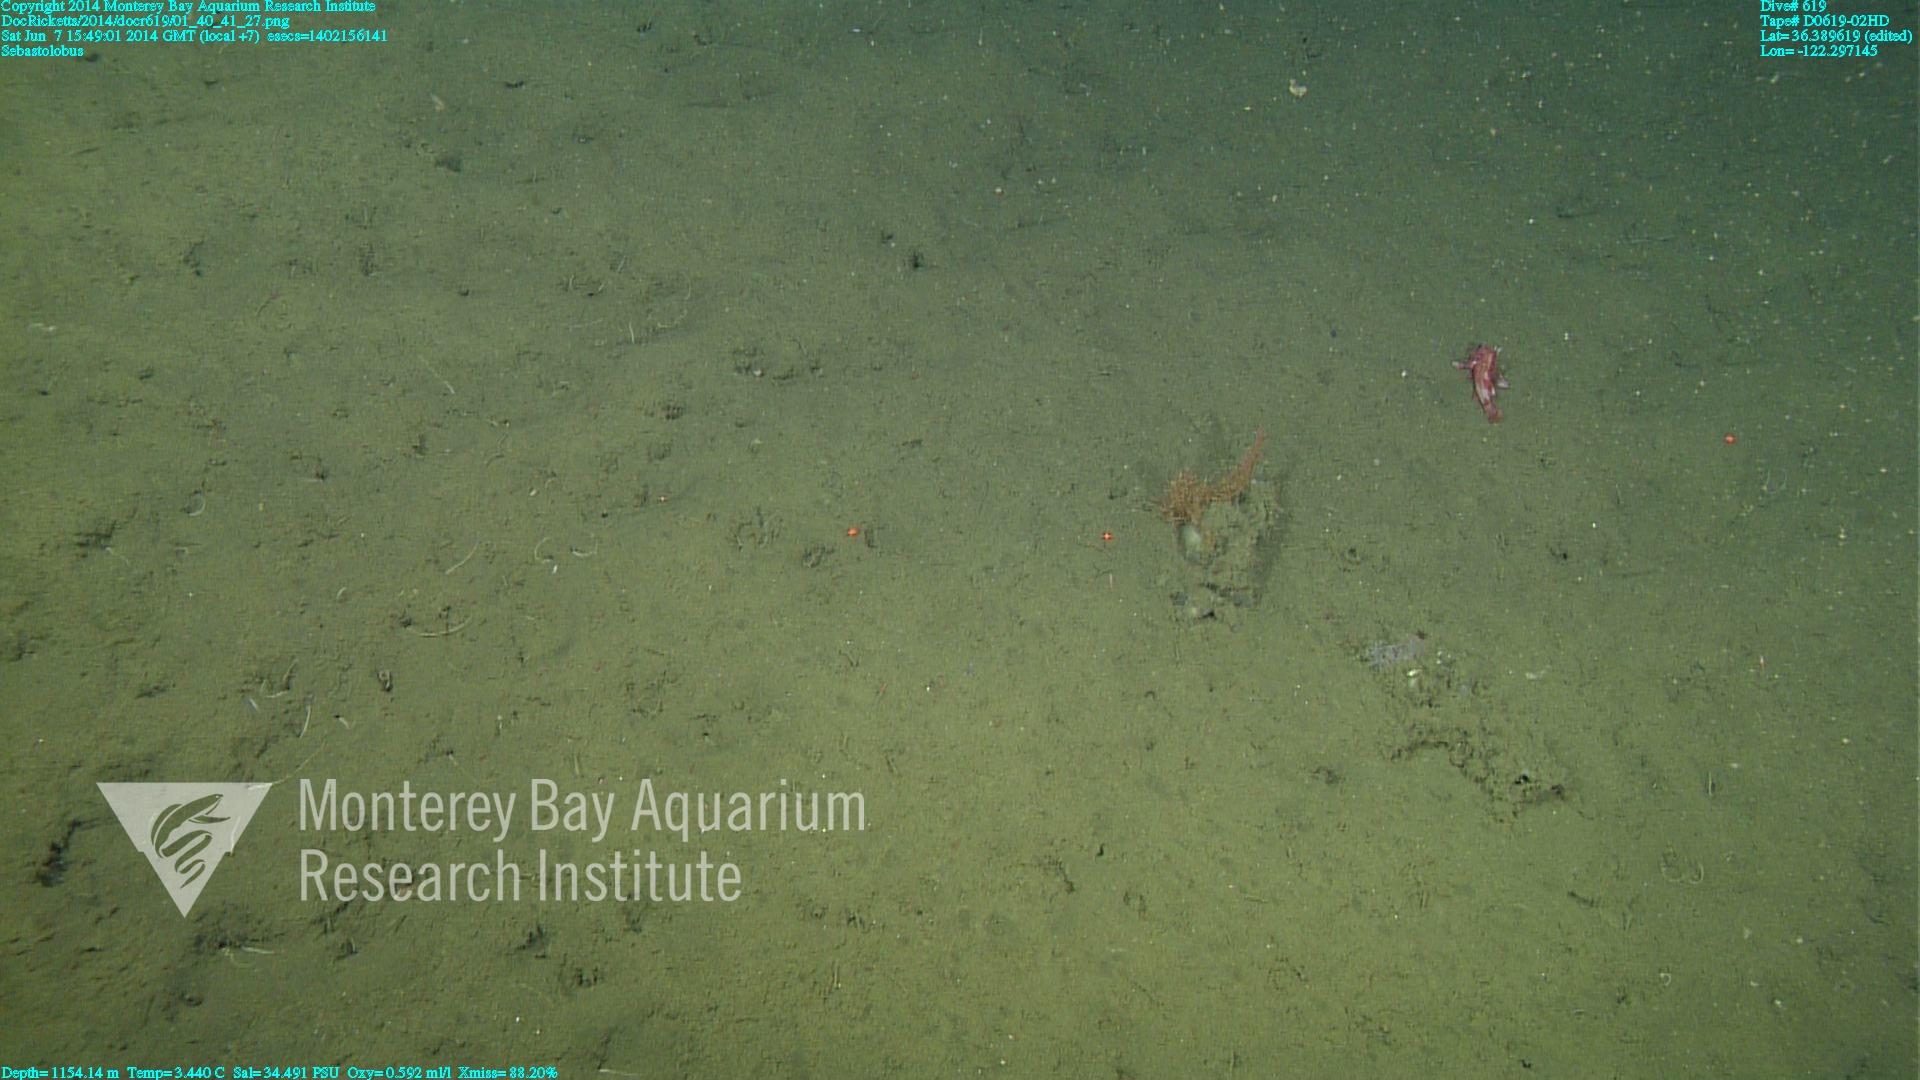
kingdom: Animalia
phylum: Cnidaria
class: Anthozoa
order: Malacalcyonacea
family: Gorgoniidae
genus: Callistephanus
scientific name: Callistephanus kofoidi
